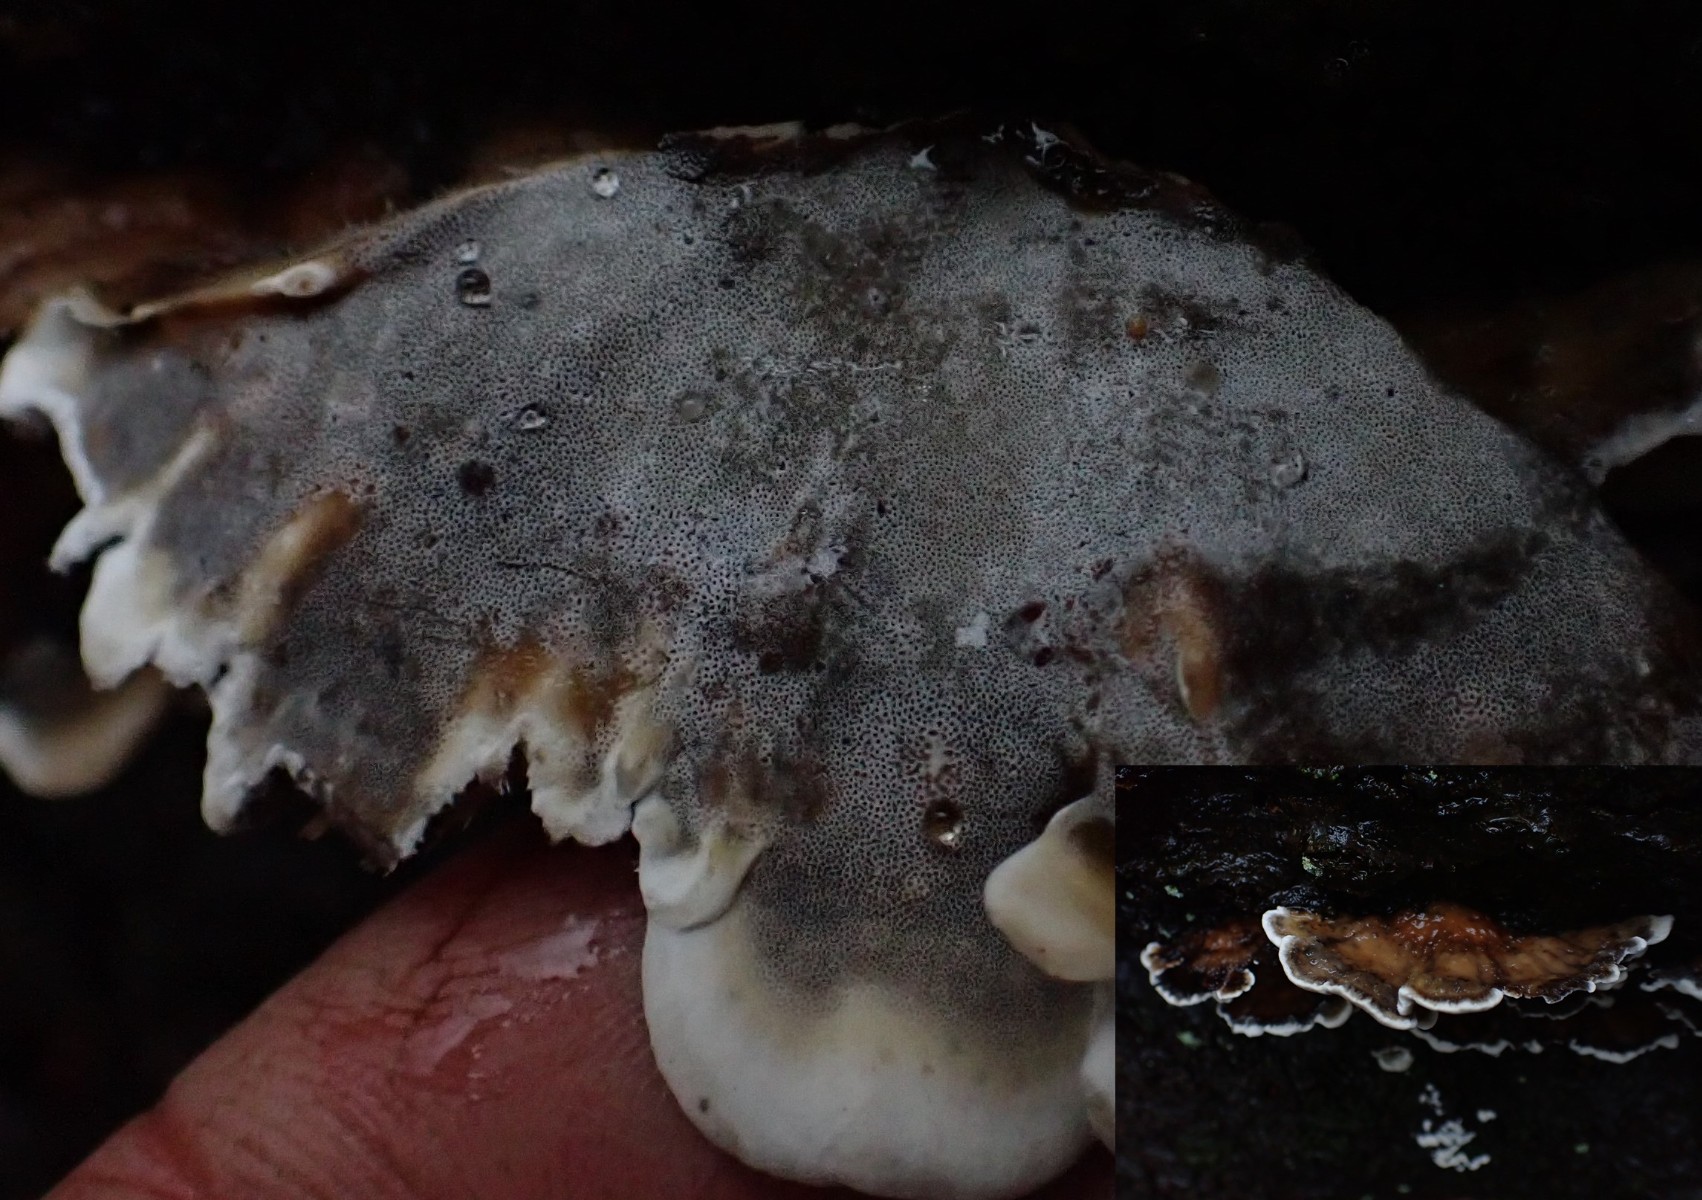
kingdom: Fungi
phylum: Basidiomycota
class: Agaricomycetes
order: Polyporales
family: Phanerochaetaceae
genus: Bjerkandera
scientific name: Bjerkandera adusta
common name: sveden sodporesvamp
